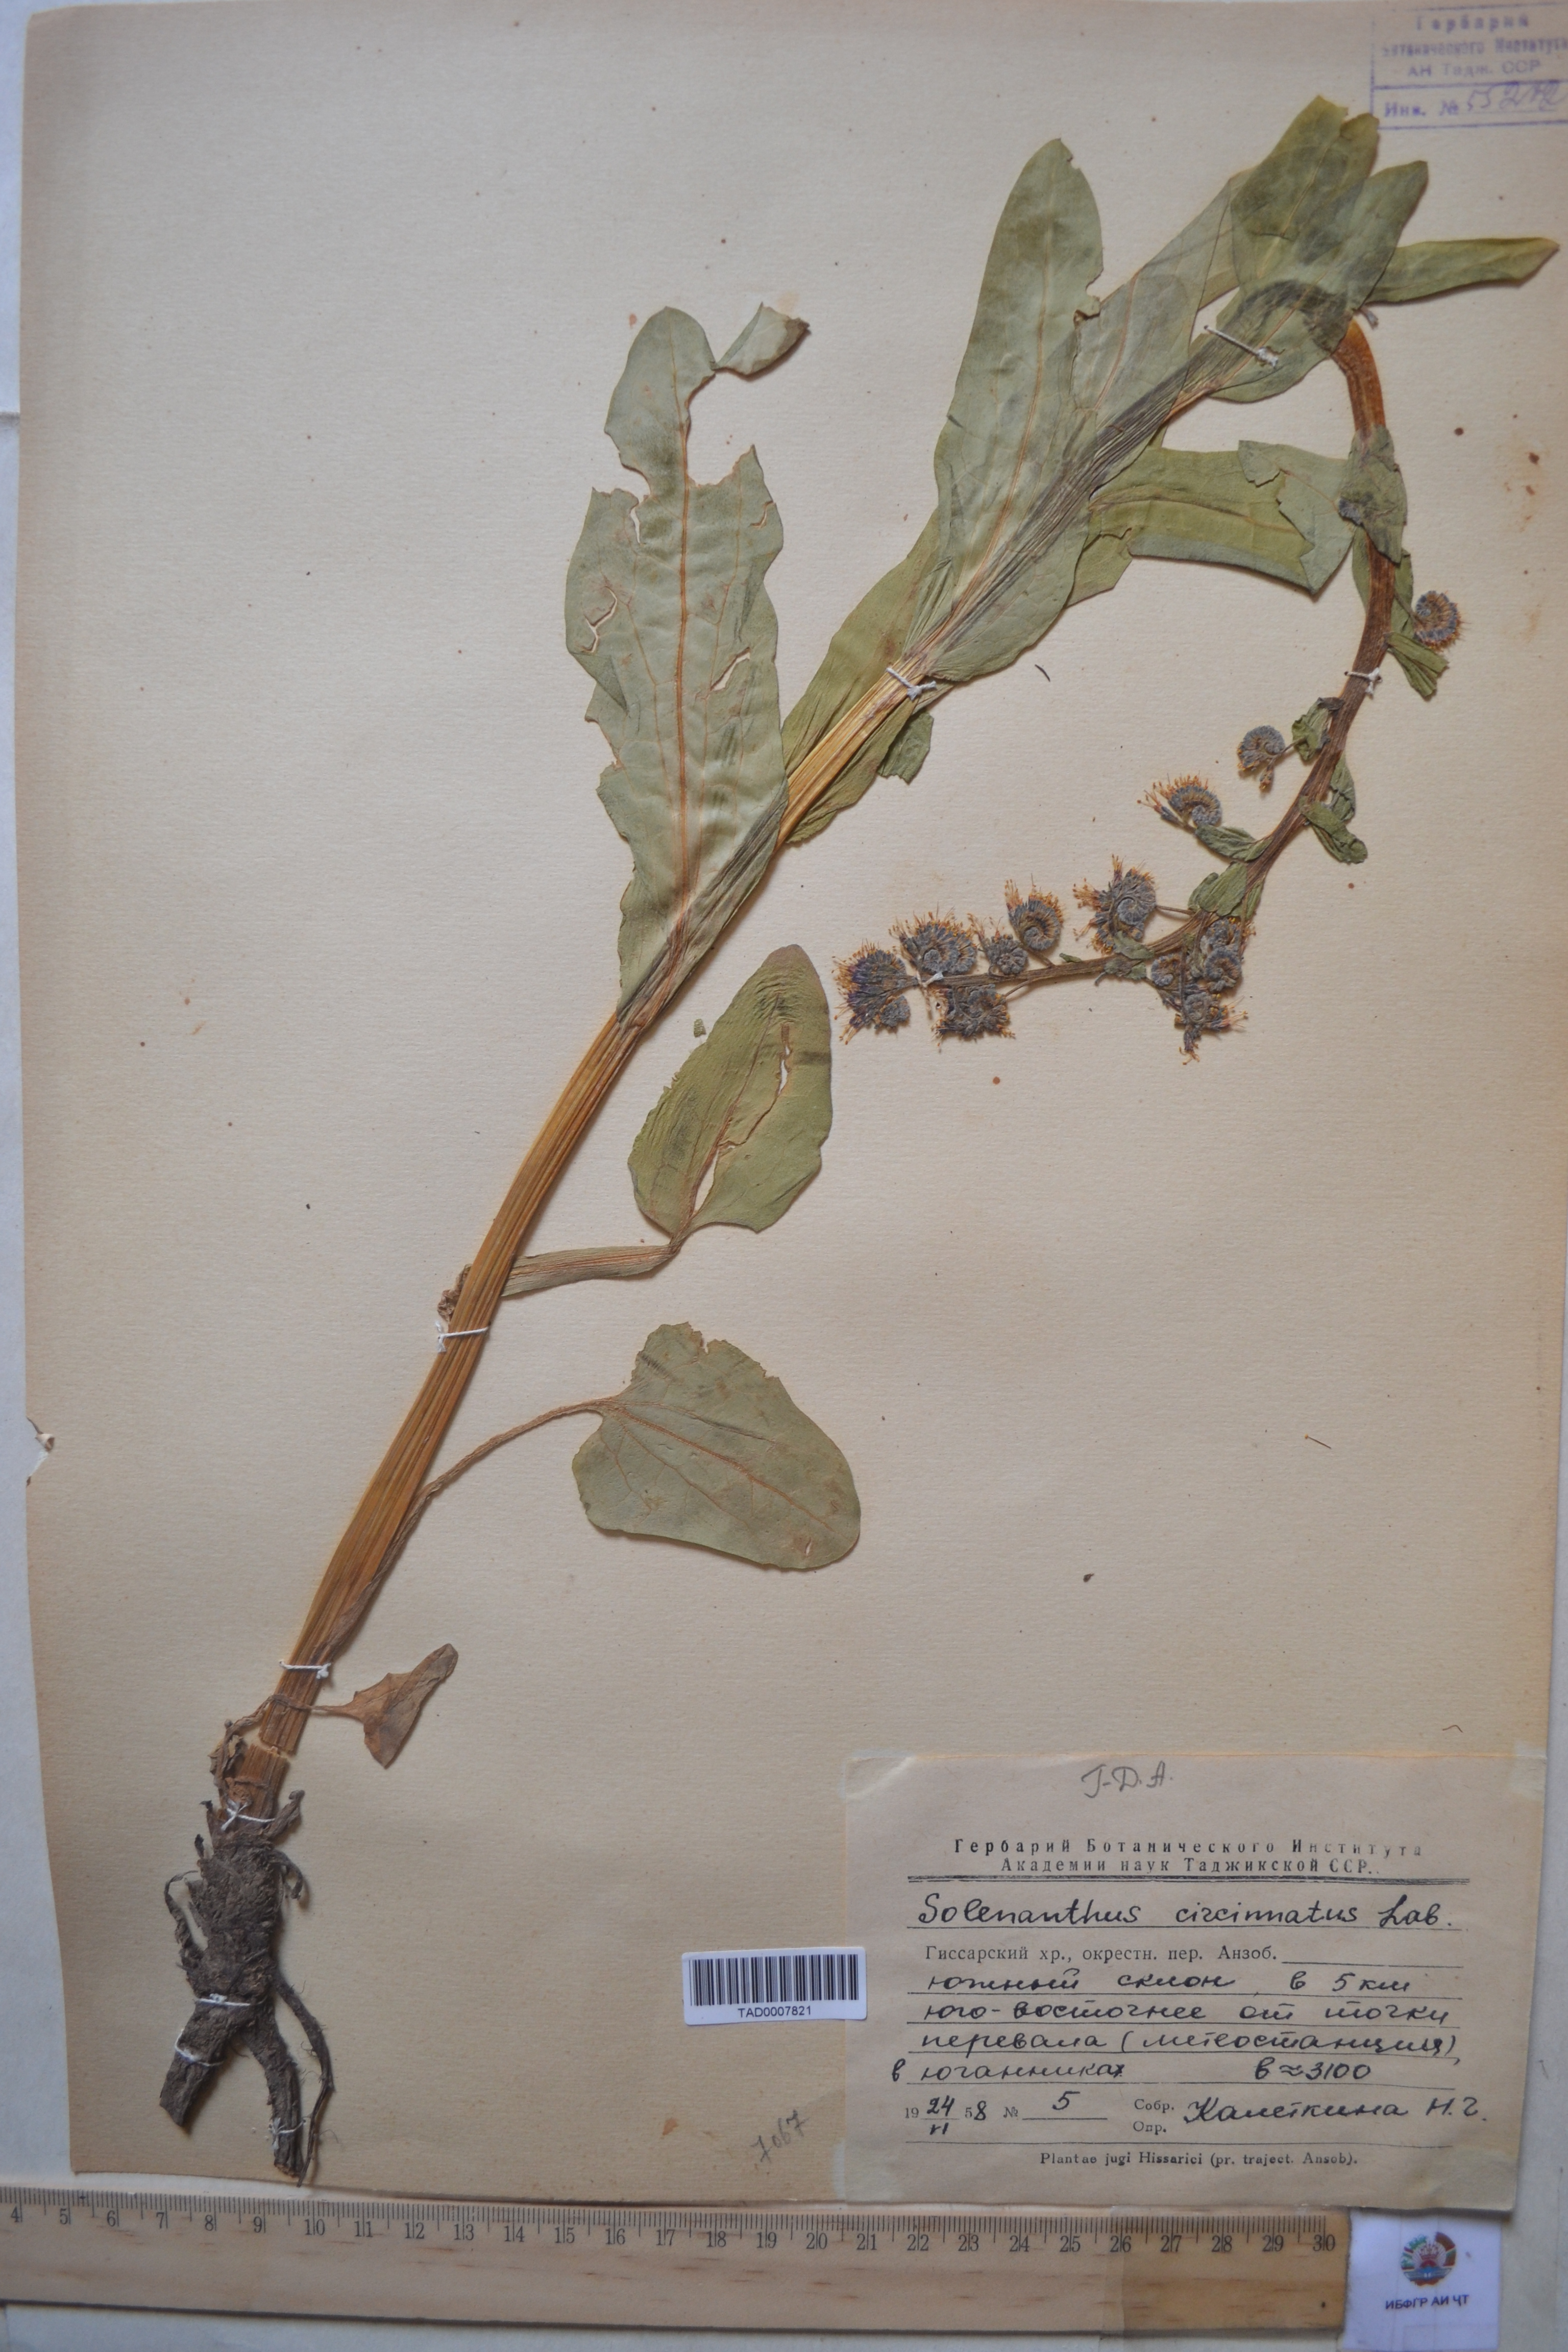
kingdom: Plantae
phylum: Tracheophyta
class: Magnoliopsida
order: Boraginales
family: Boraginaceae
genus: Solenanthus
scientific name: Solenanthus circinnatus
